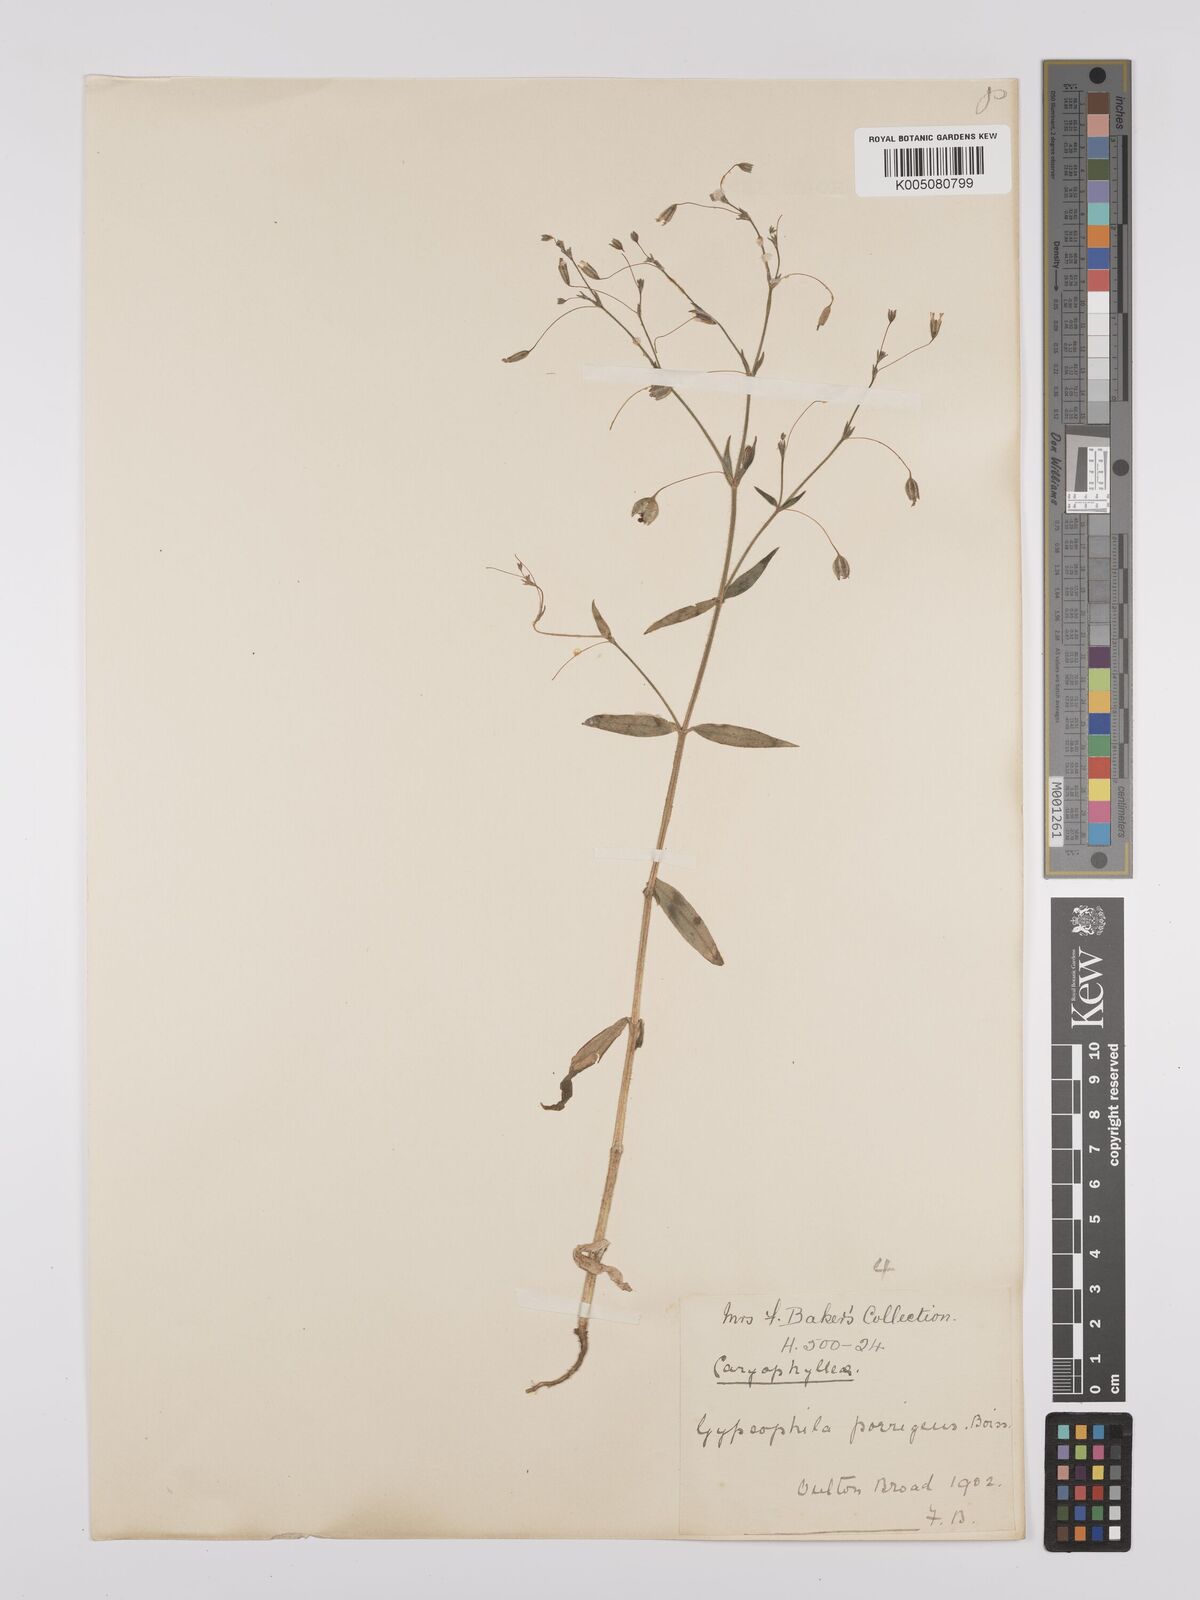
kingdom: Plantae
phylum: Tracheophyta
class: Magnoliopsida
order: Caryophyllales
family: Caryophyllaceae
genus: Gypsophila
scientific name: Gypsophila pilosa
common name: Turkish baby's-breath
